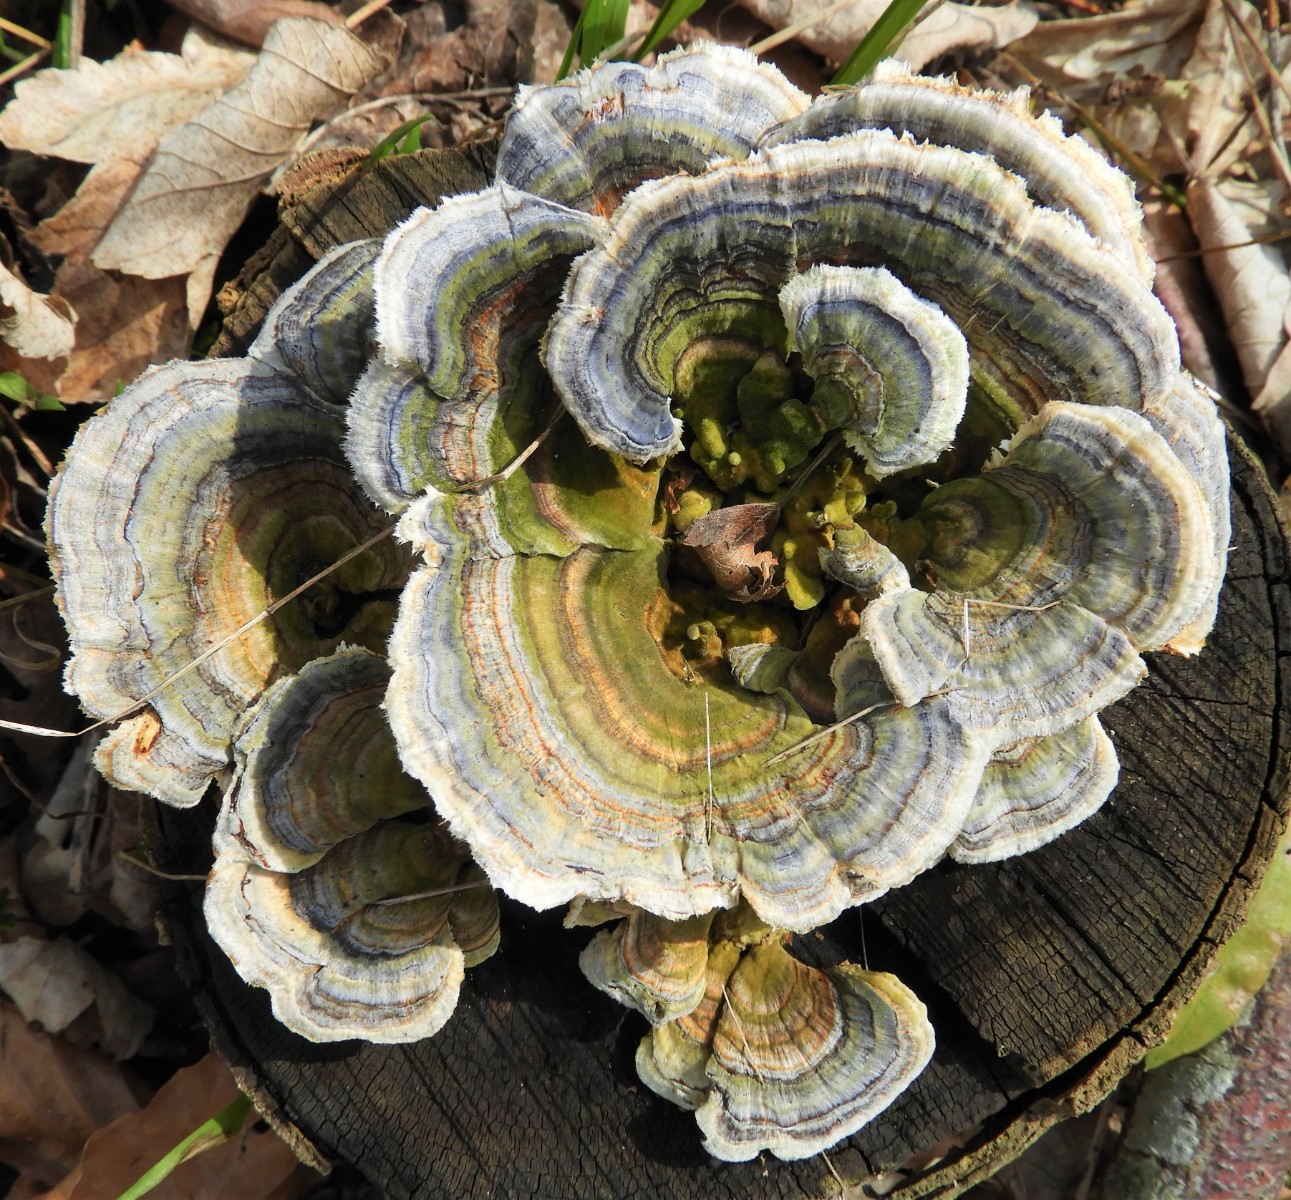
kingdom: Fungi
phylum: Basidiomycota
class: Agaricomycetes
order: Polyporales
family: Polyporaceae
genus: Trametes
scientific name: Trametes versicolor
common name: broget læderporesvamp
